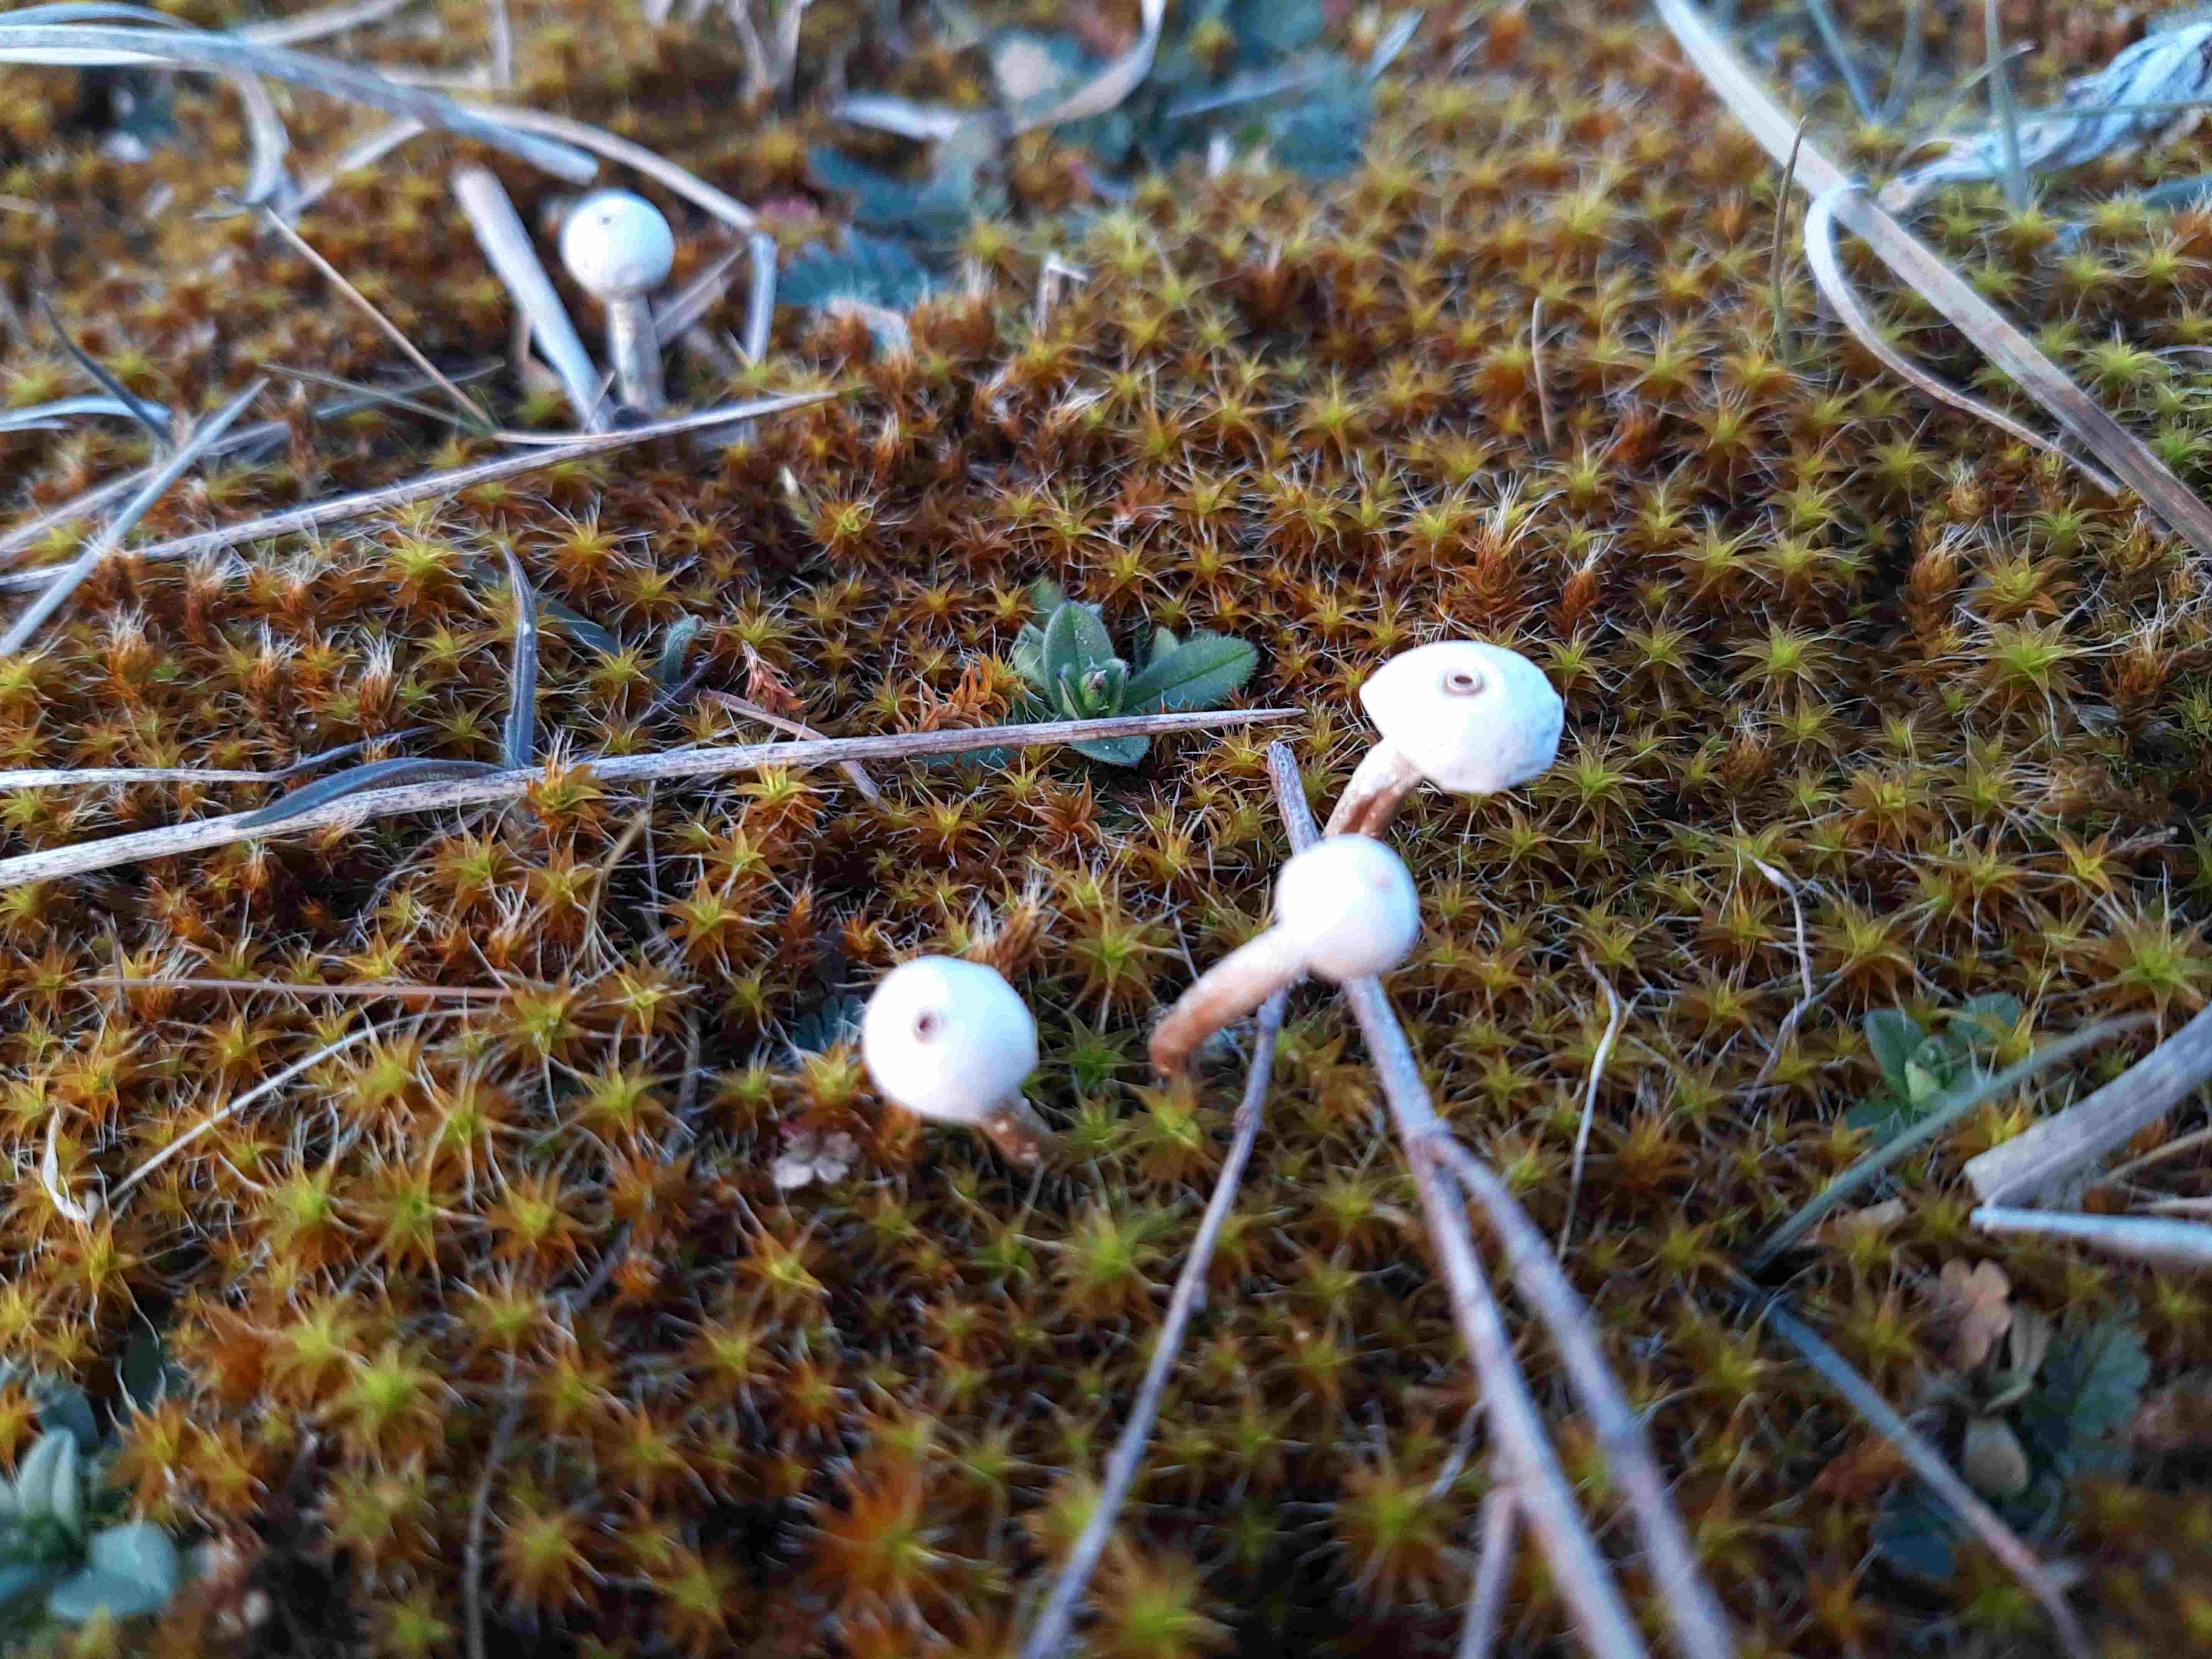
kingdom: Fungi
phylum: Basidiomycota
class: Agaricomycetes
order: Agaricales
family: Agaricaceae
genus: Tulostoma
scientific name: Tulostoma brumale
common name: vinter-stilkbovist
